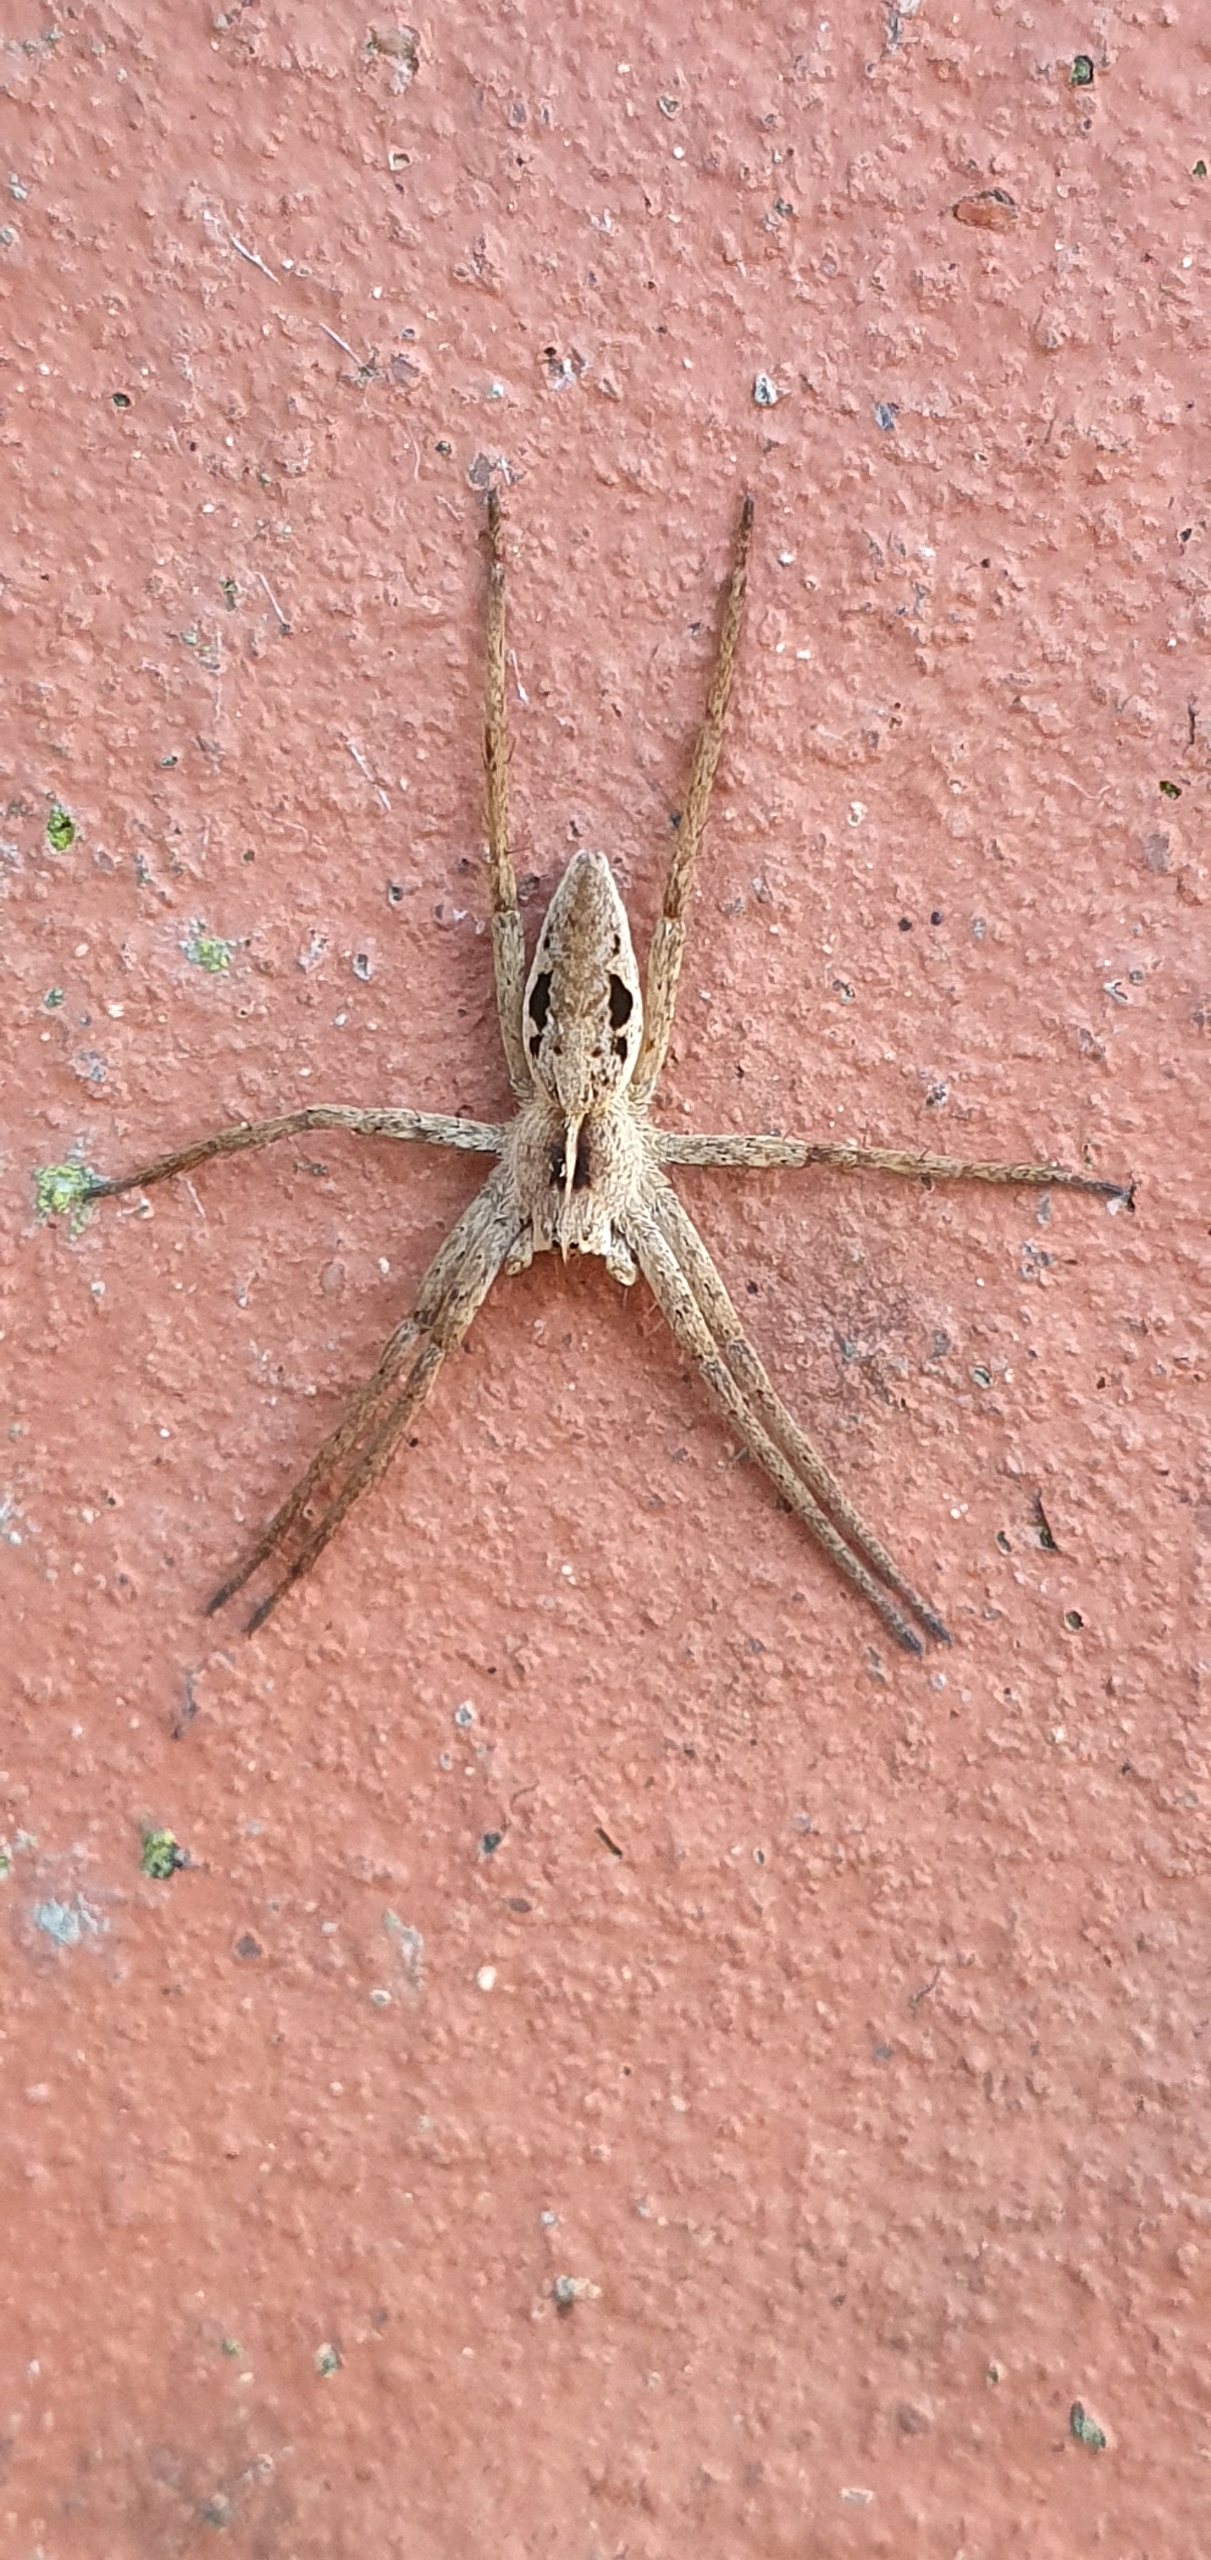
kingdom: Animalia
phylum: Arthropoda
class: Arachnida
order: Araneae
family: Pisauridae
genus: Pisaura
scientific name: Pisaura mirabilis
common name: Almindelig rovedderkop
